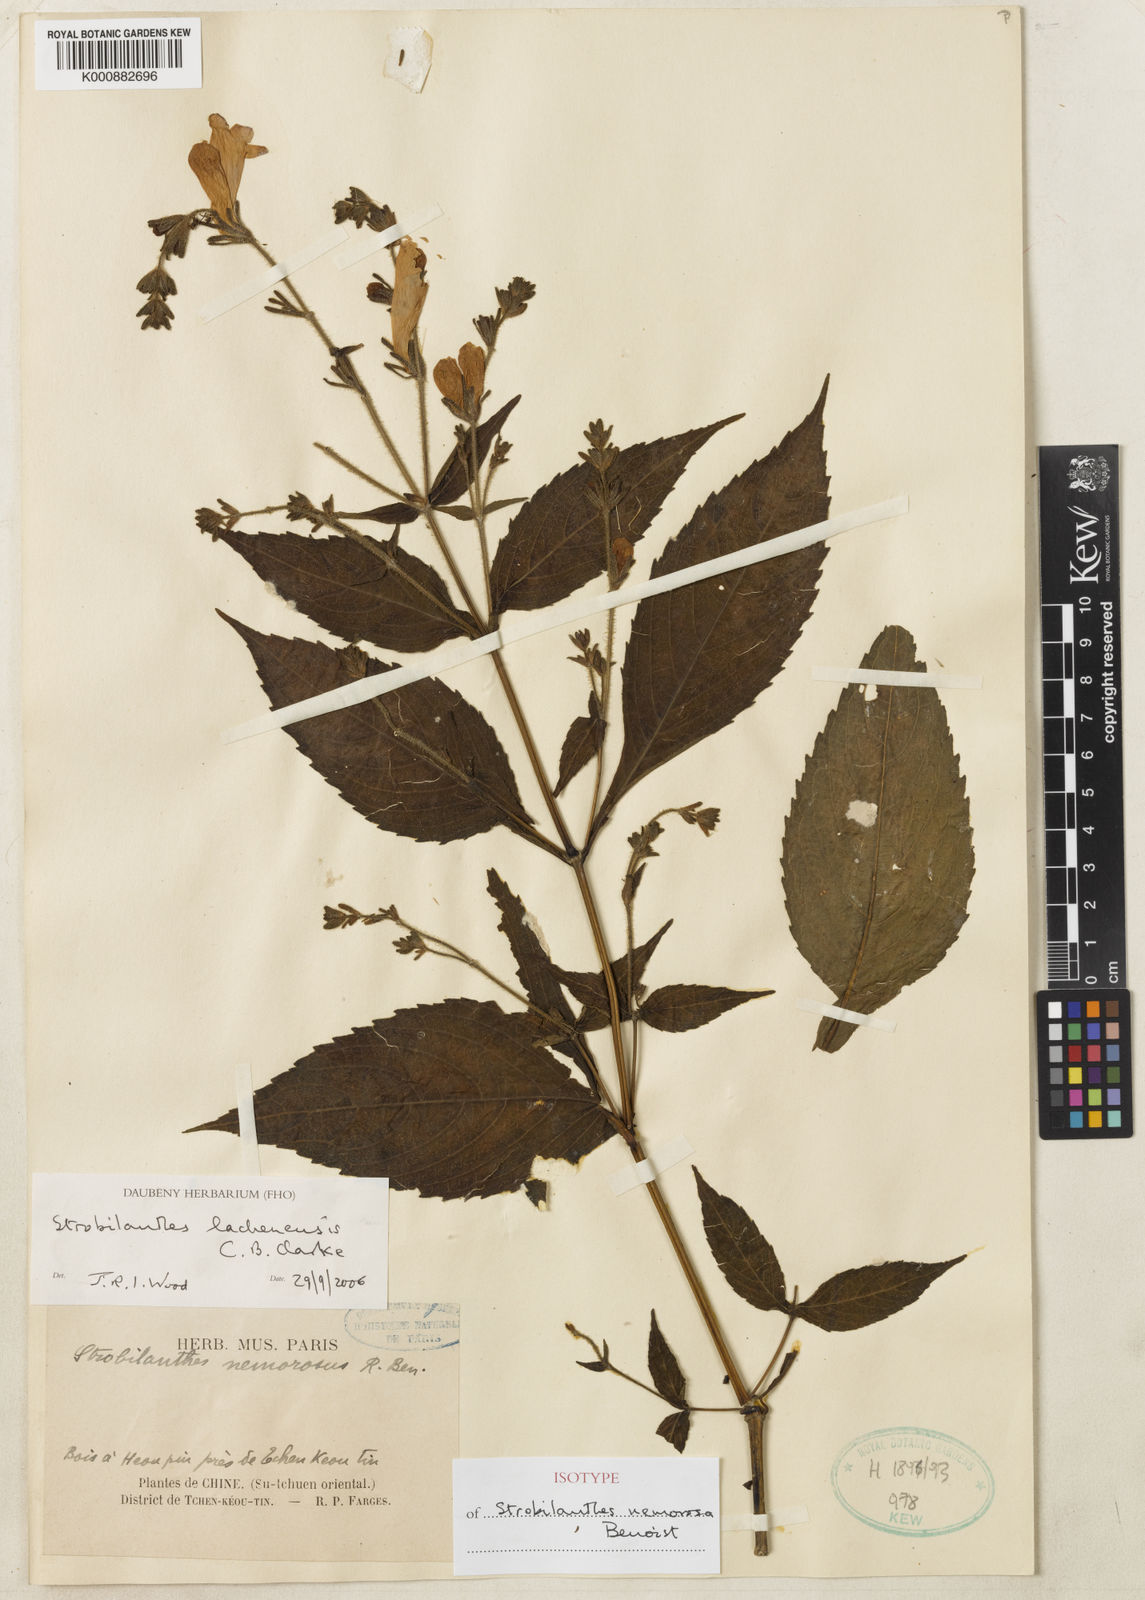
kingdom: Plantae
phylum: Tracheophyta
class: Magnoliopsida
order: Lamiales
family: Acanthaceae
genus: Strobilanthes
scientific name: Strobilanthes lachenensis
